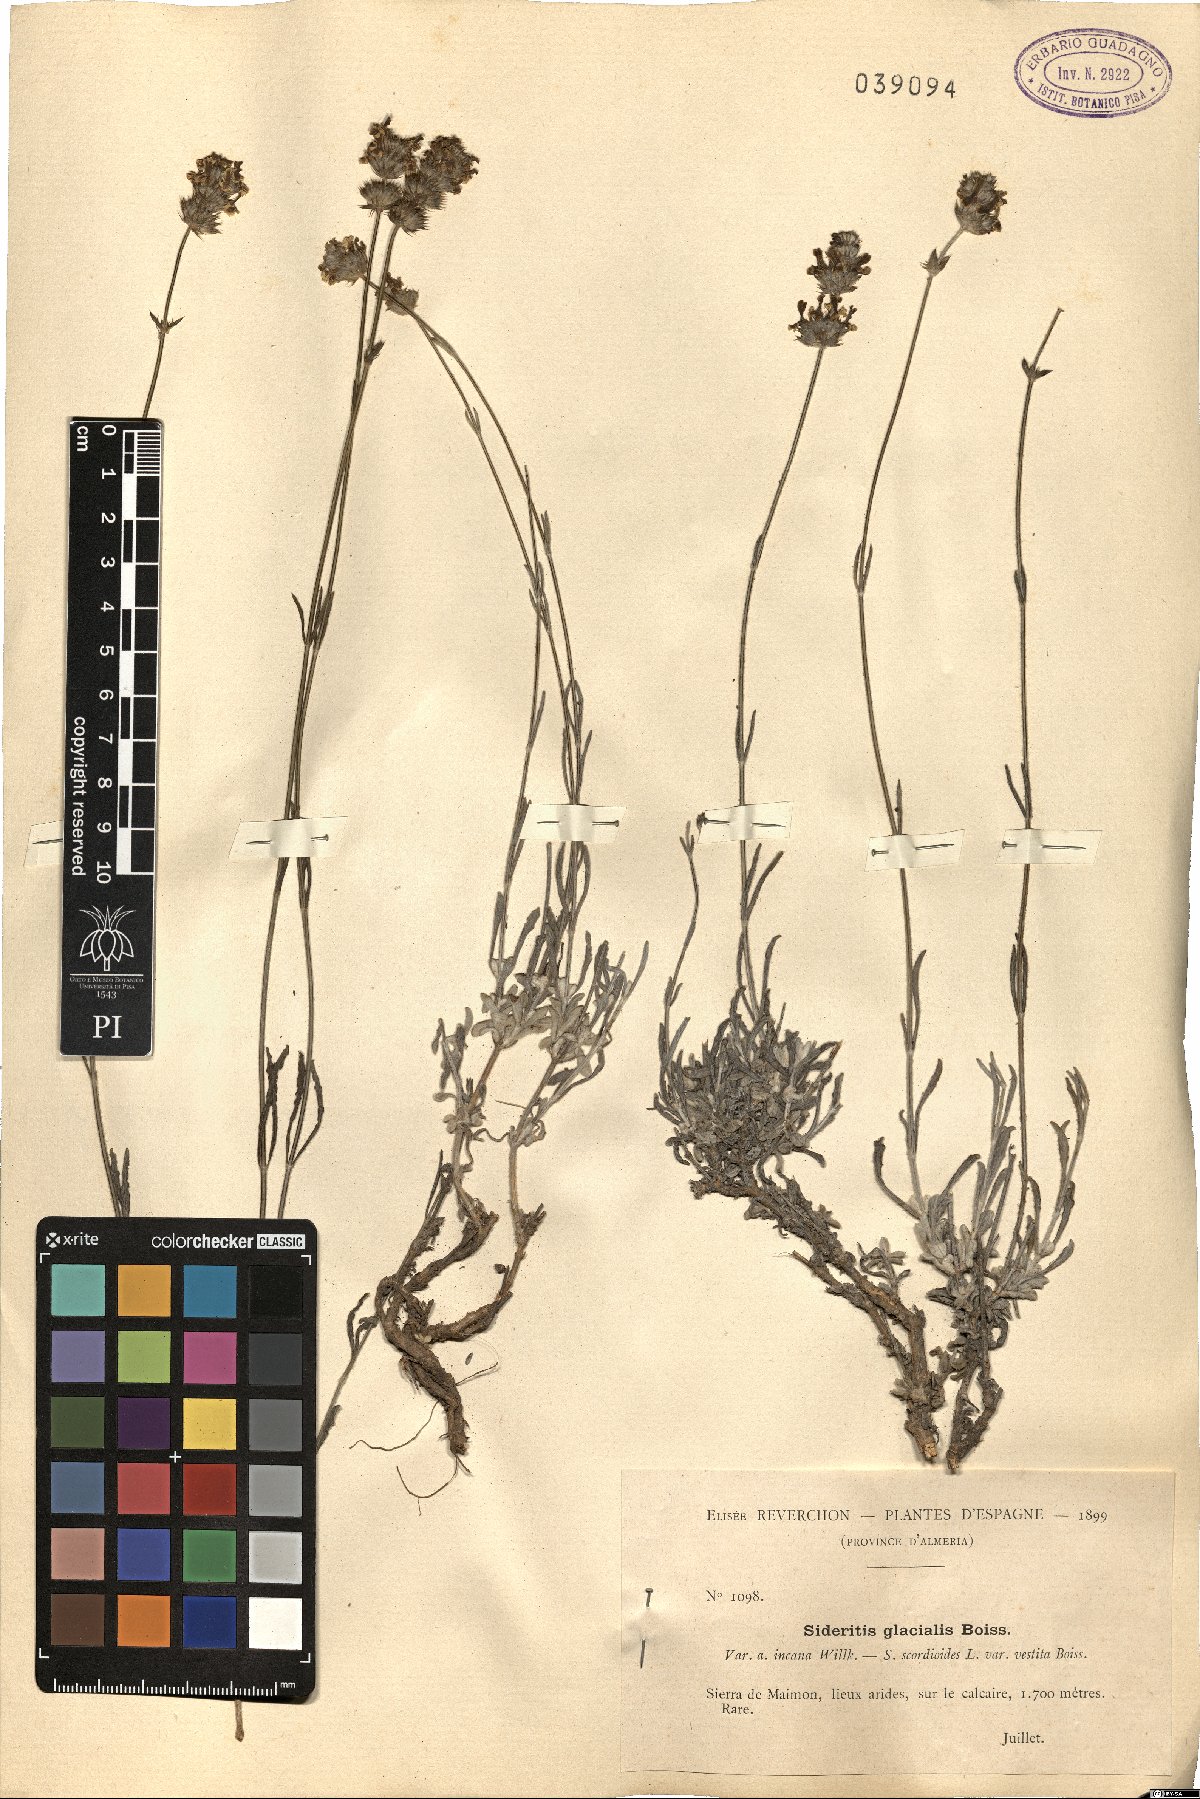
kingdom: Plantae
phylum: Tracheophyta
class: Magnoliopsida
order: Lamiales
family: Lamiaceae
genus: Sideritis
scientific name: Sideritis glacialis
